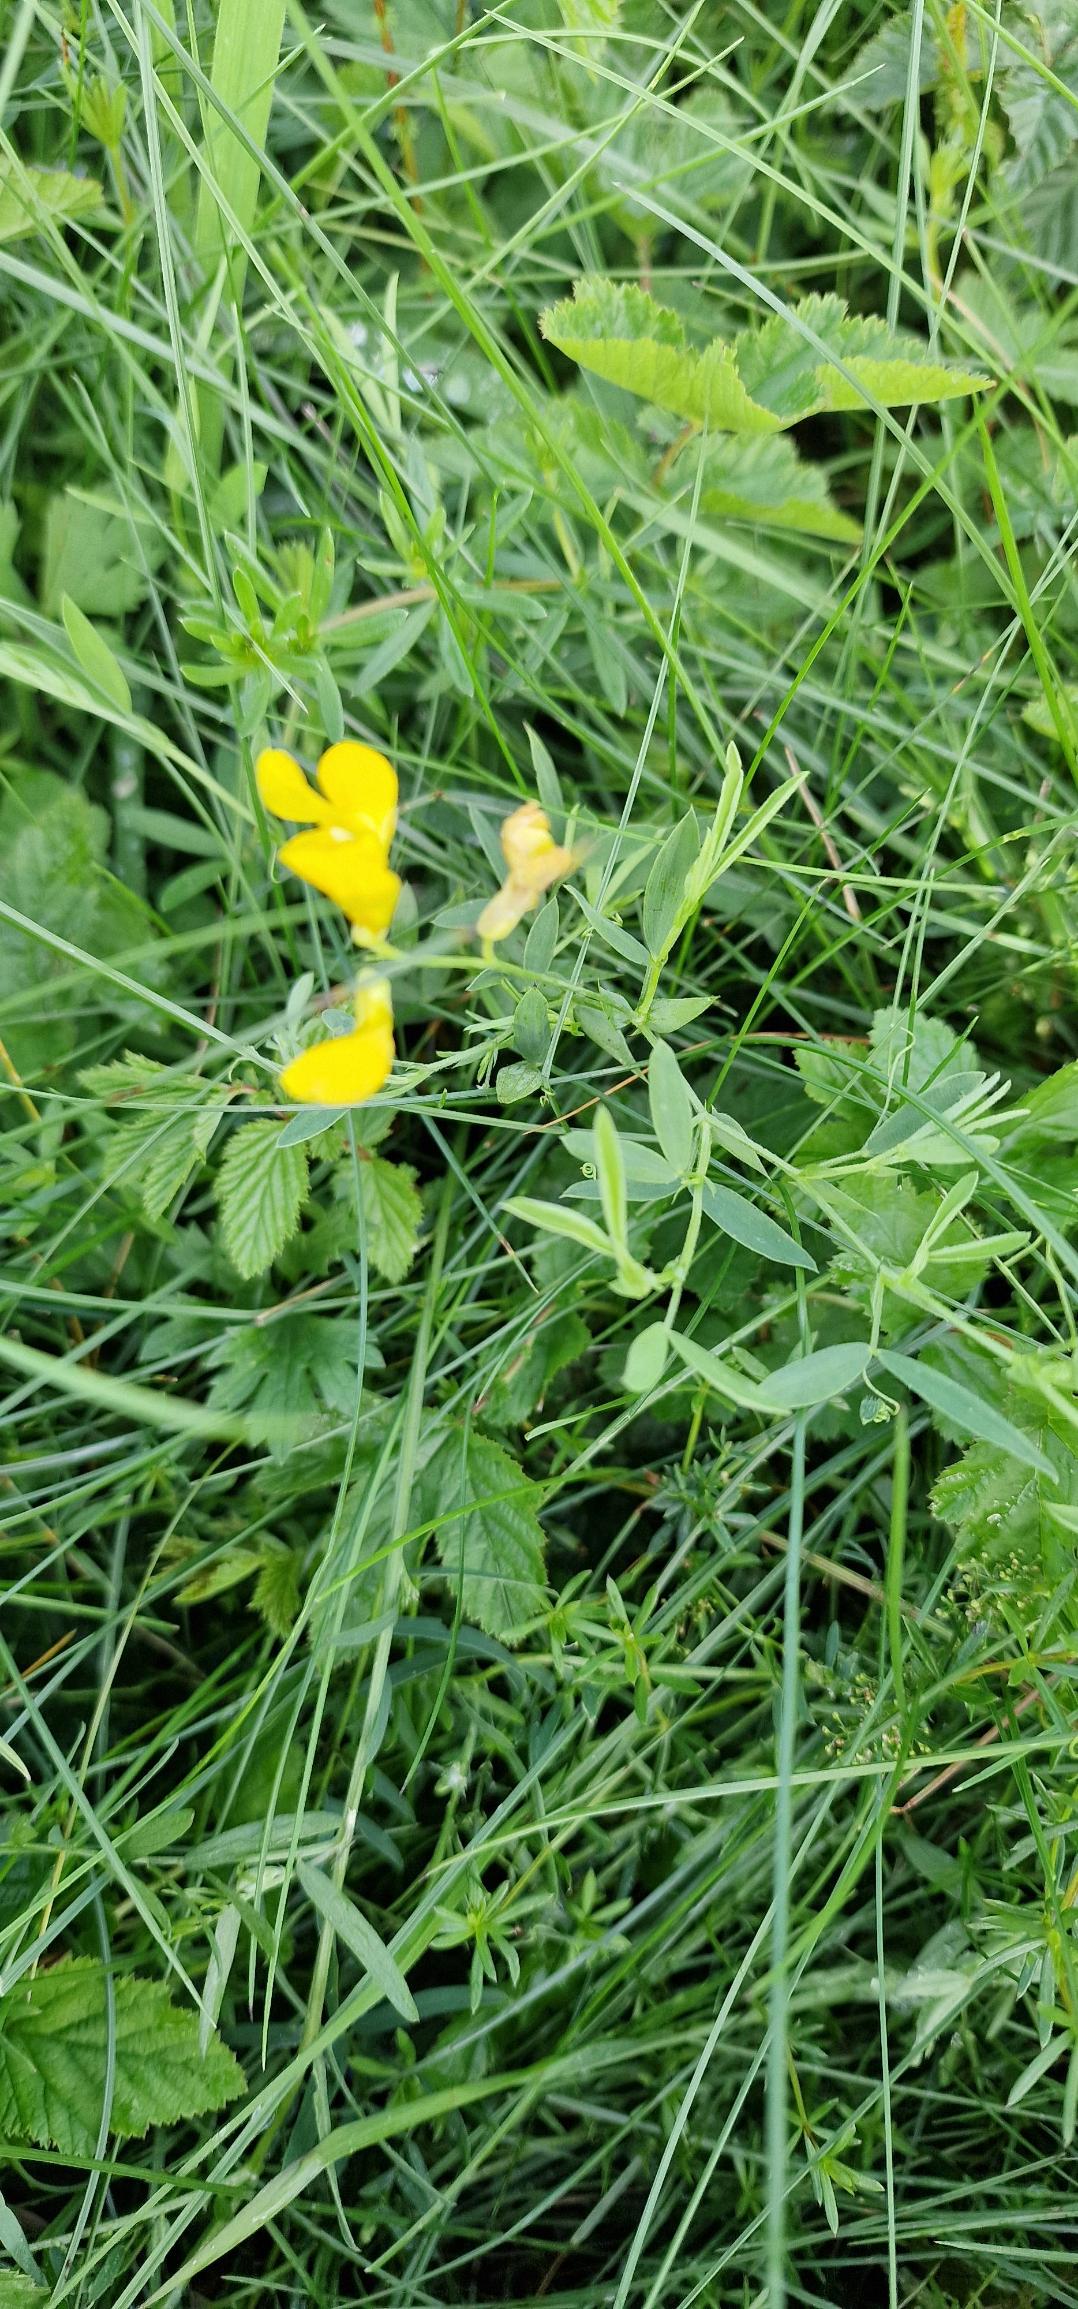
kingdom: Plantae
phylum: Tracheophyta
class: Magnoliopsida
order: Fabales
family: Fabaceae
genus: Lathyrus
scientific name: Lathyrus pratensis
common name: Gul fladbælg
